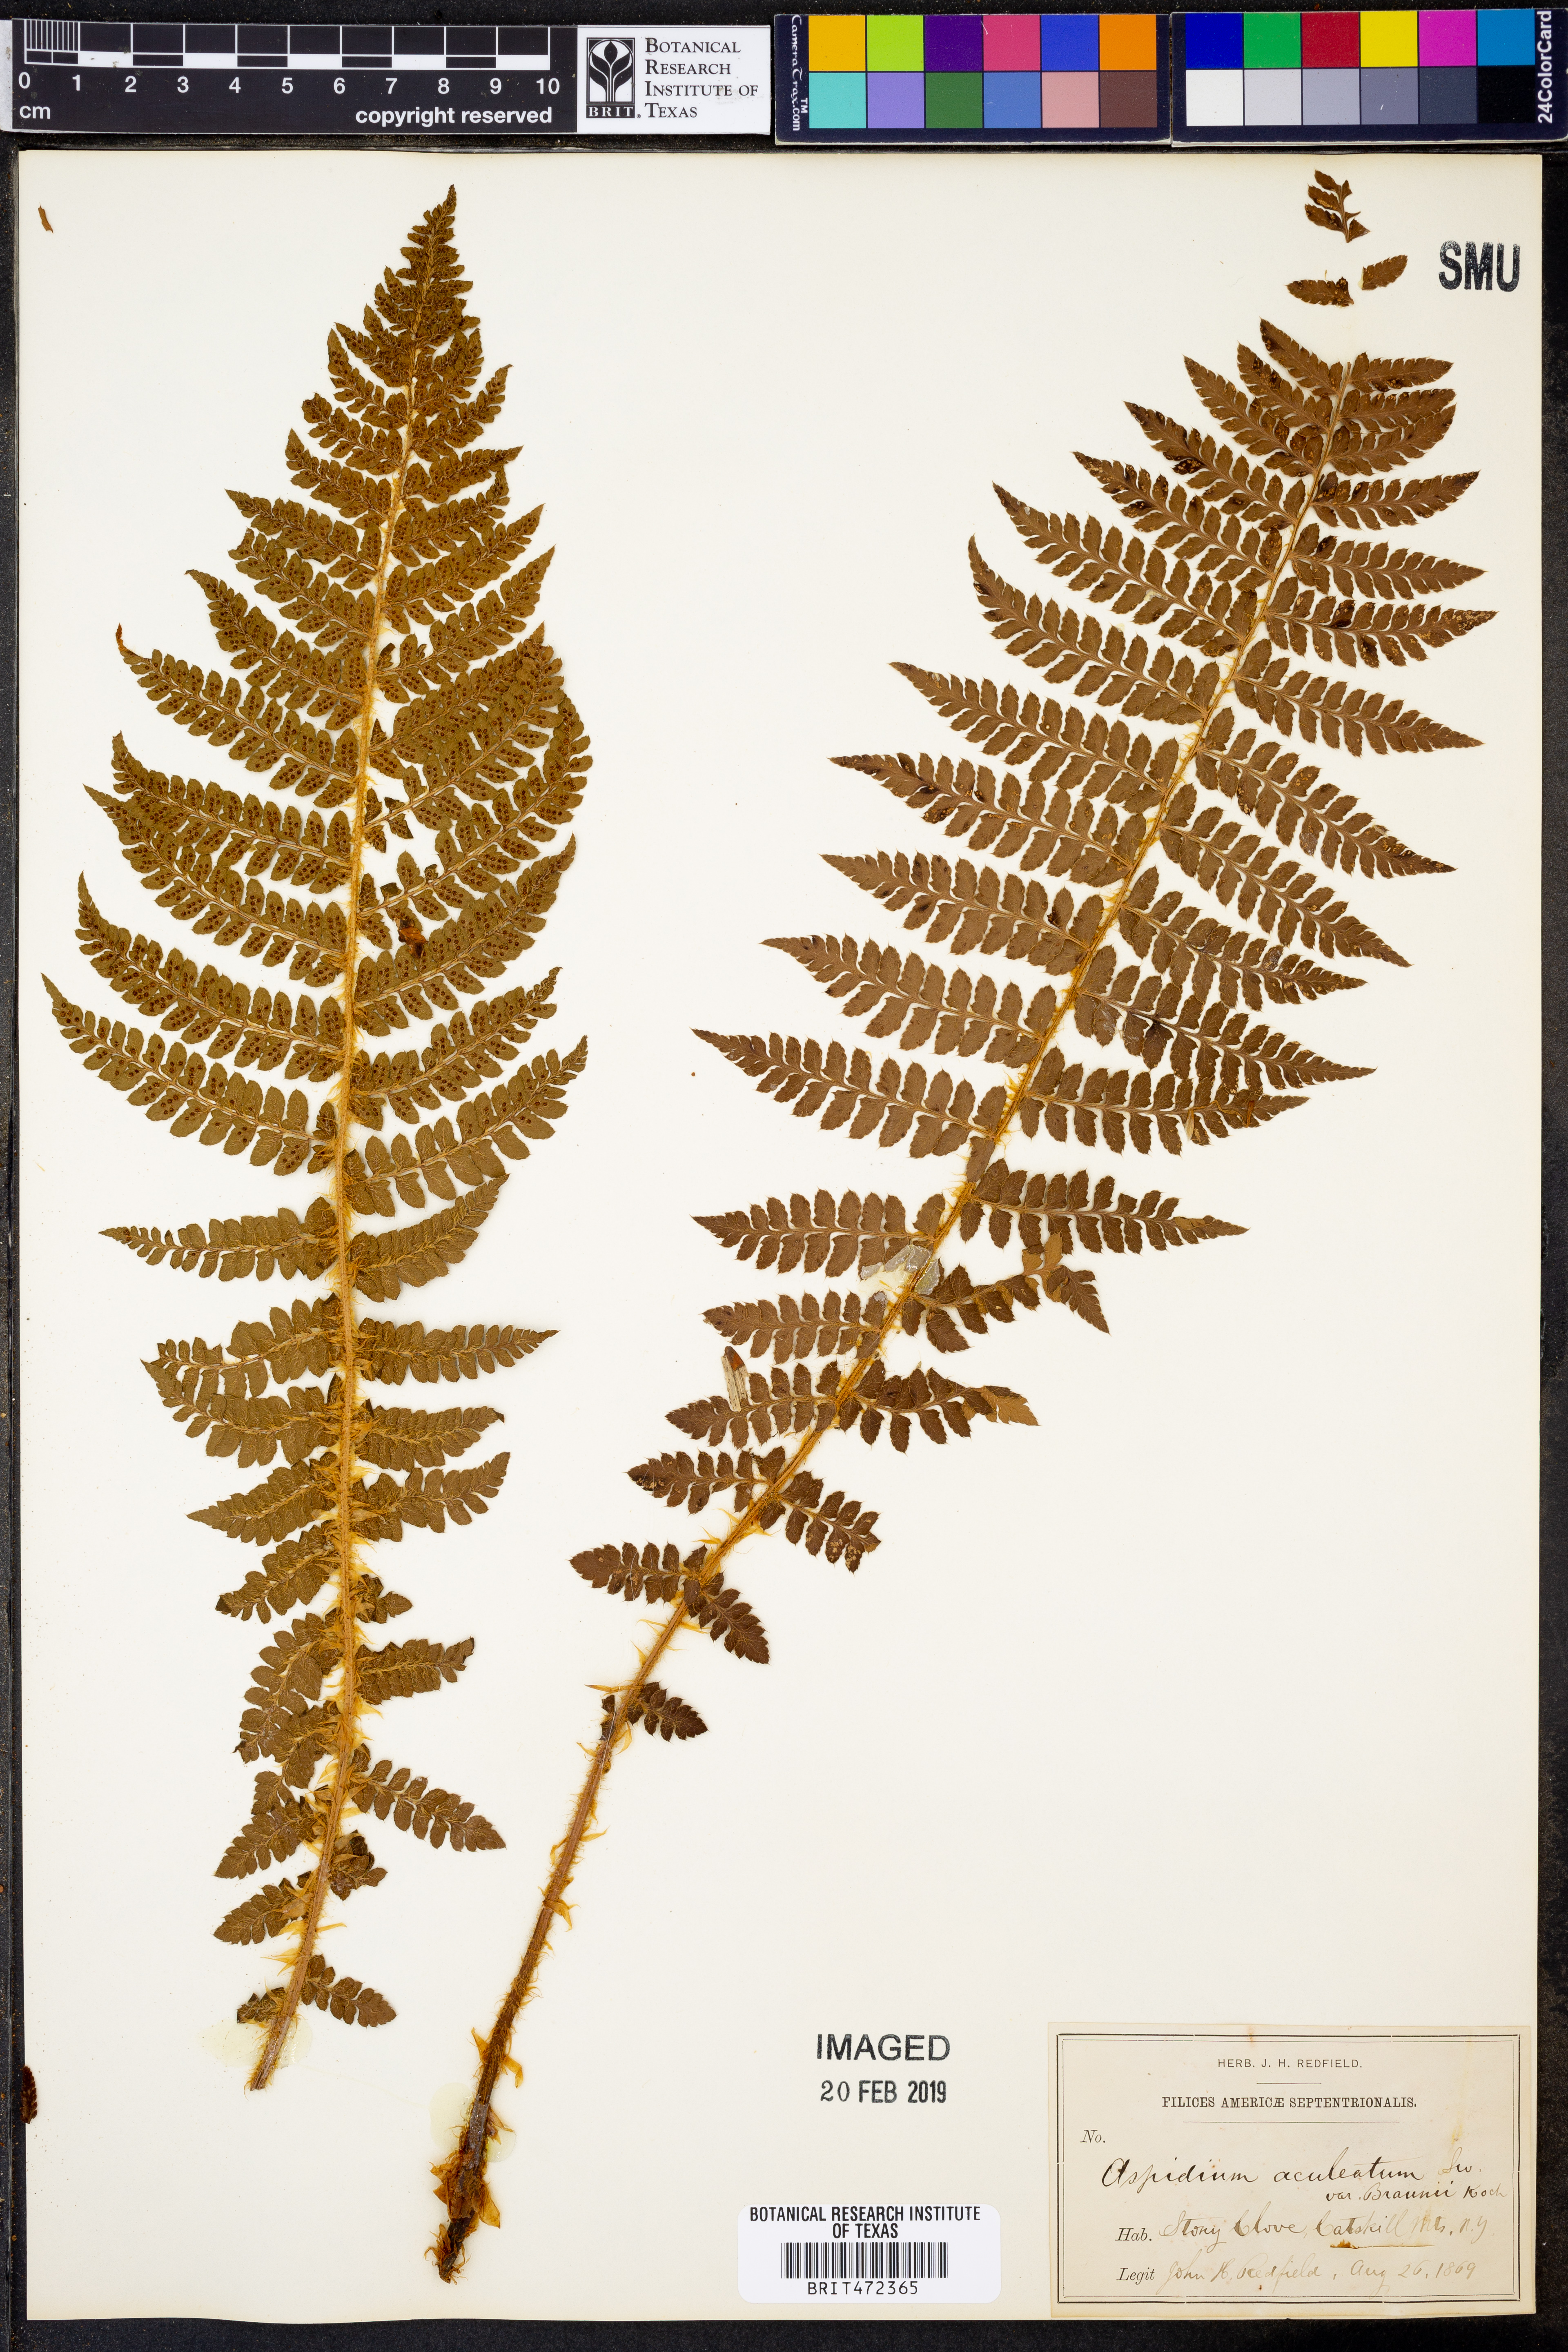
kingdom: Plantae
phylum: Tracheophyta
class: Polypodiopsida
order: Polypodiales
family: Dryopteridaceae
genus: Polystichum
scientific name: Polystichum aculeatum
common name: Hard shield-fern
